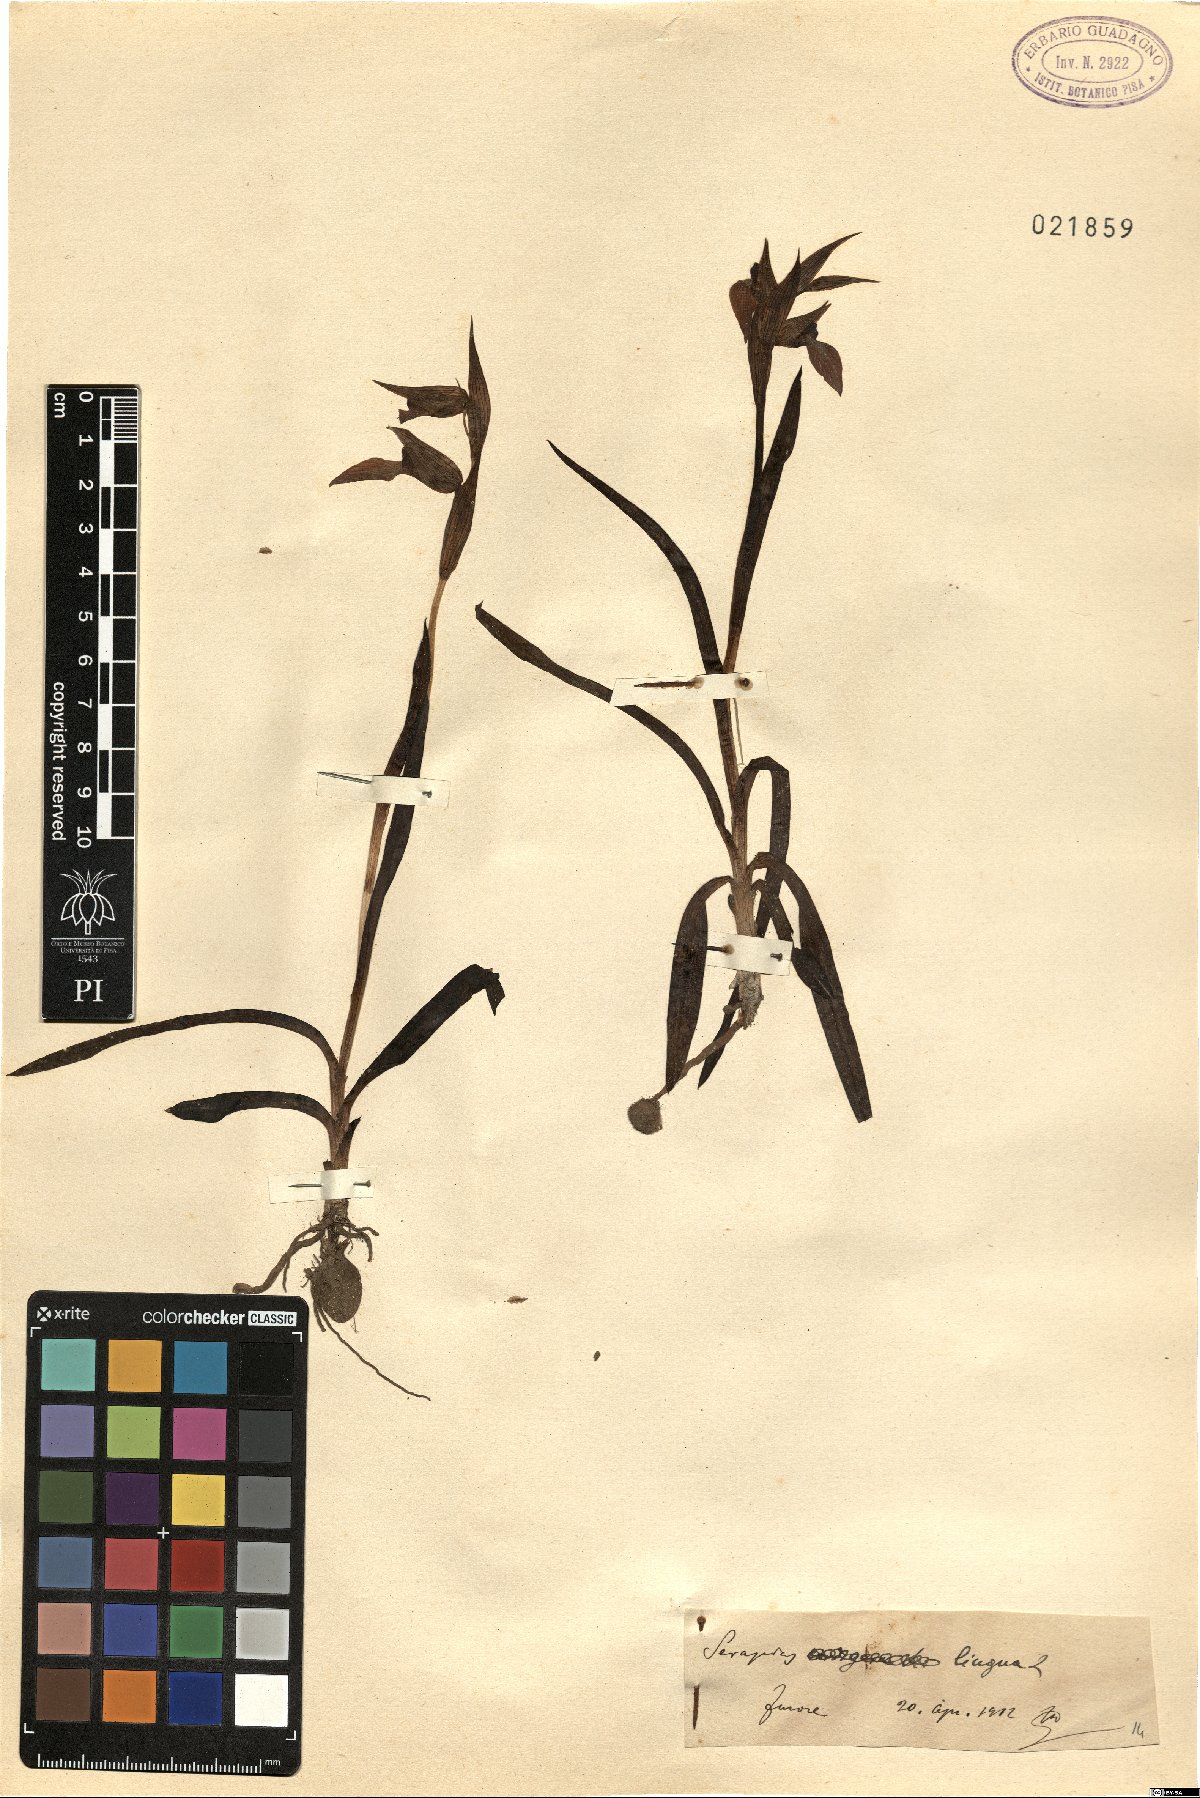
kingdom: Plantae
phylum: Tracheophyta
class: Liliopsida
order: Asparagales
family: Orchidaceae
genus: Serapias
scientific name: Serapias lingua
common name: Tongue-orchid
